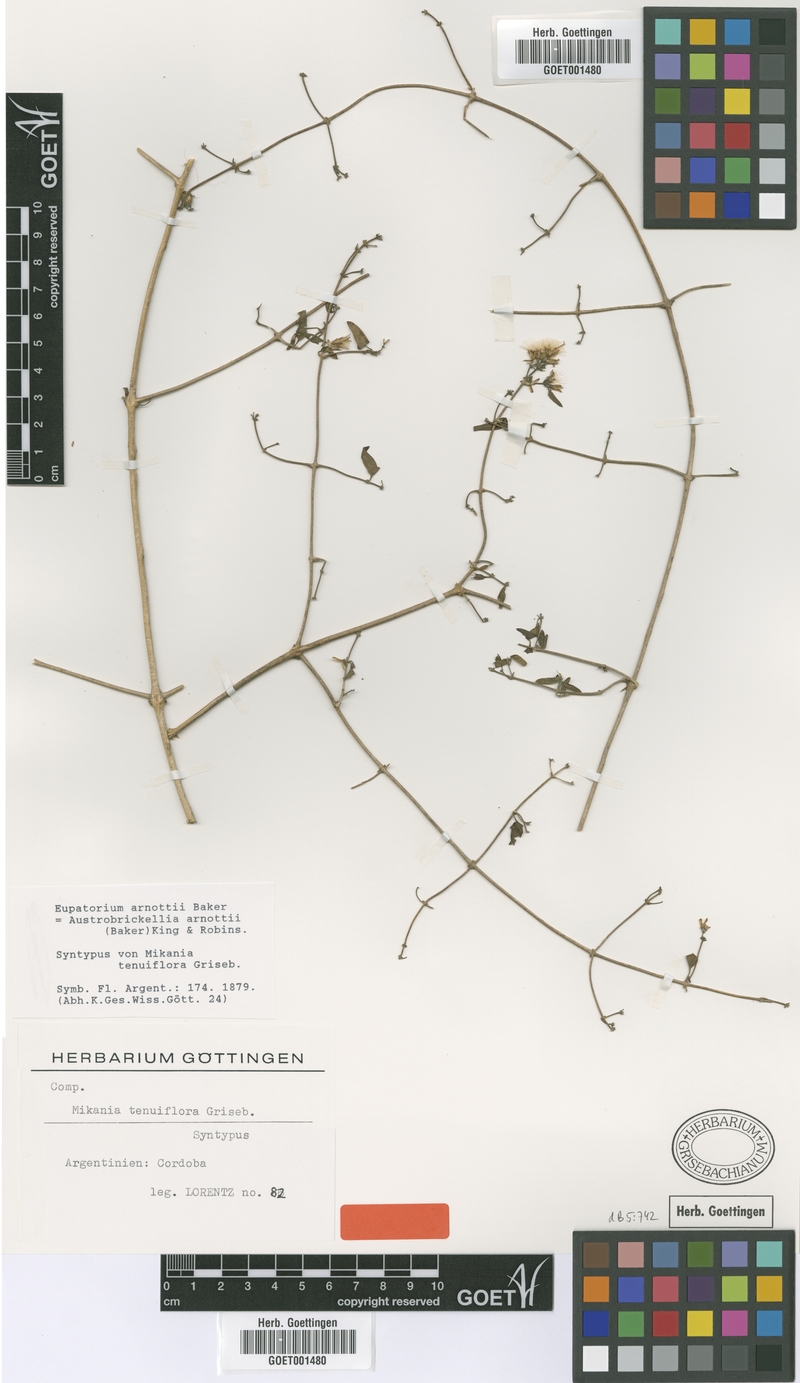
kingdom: Plantae
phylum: Tracheophyta
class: Magnoliopsida
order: Asterales
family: Asteraceae
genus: Austrobrickellia
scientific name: Austrobrickellia arnottii
